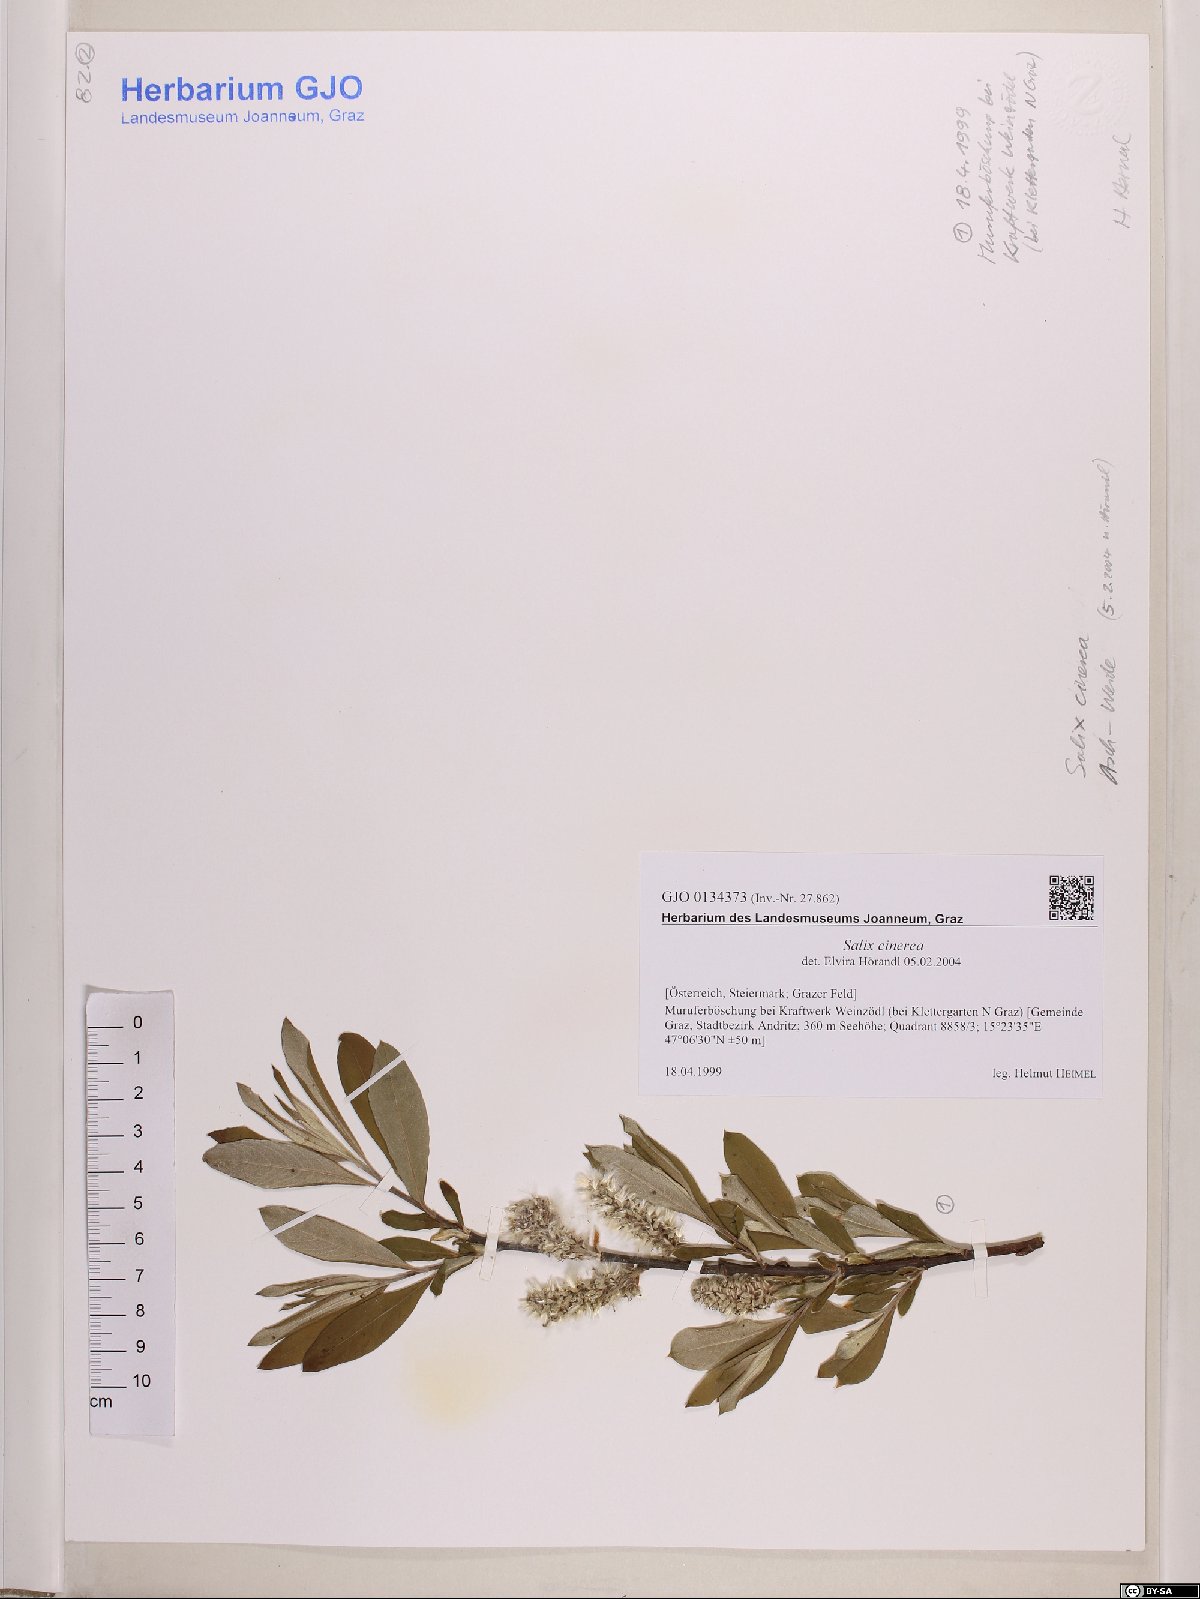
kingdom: Plantae
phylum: Tracheophyta
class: Magnoliopsida
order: Malpighiales
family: Salicaceae
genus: Salix
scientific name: Salix cinerea
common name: Common sallow
